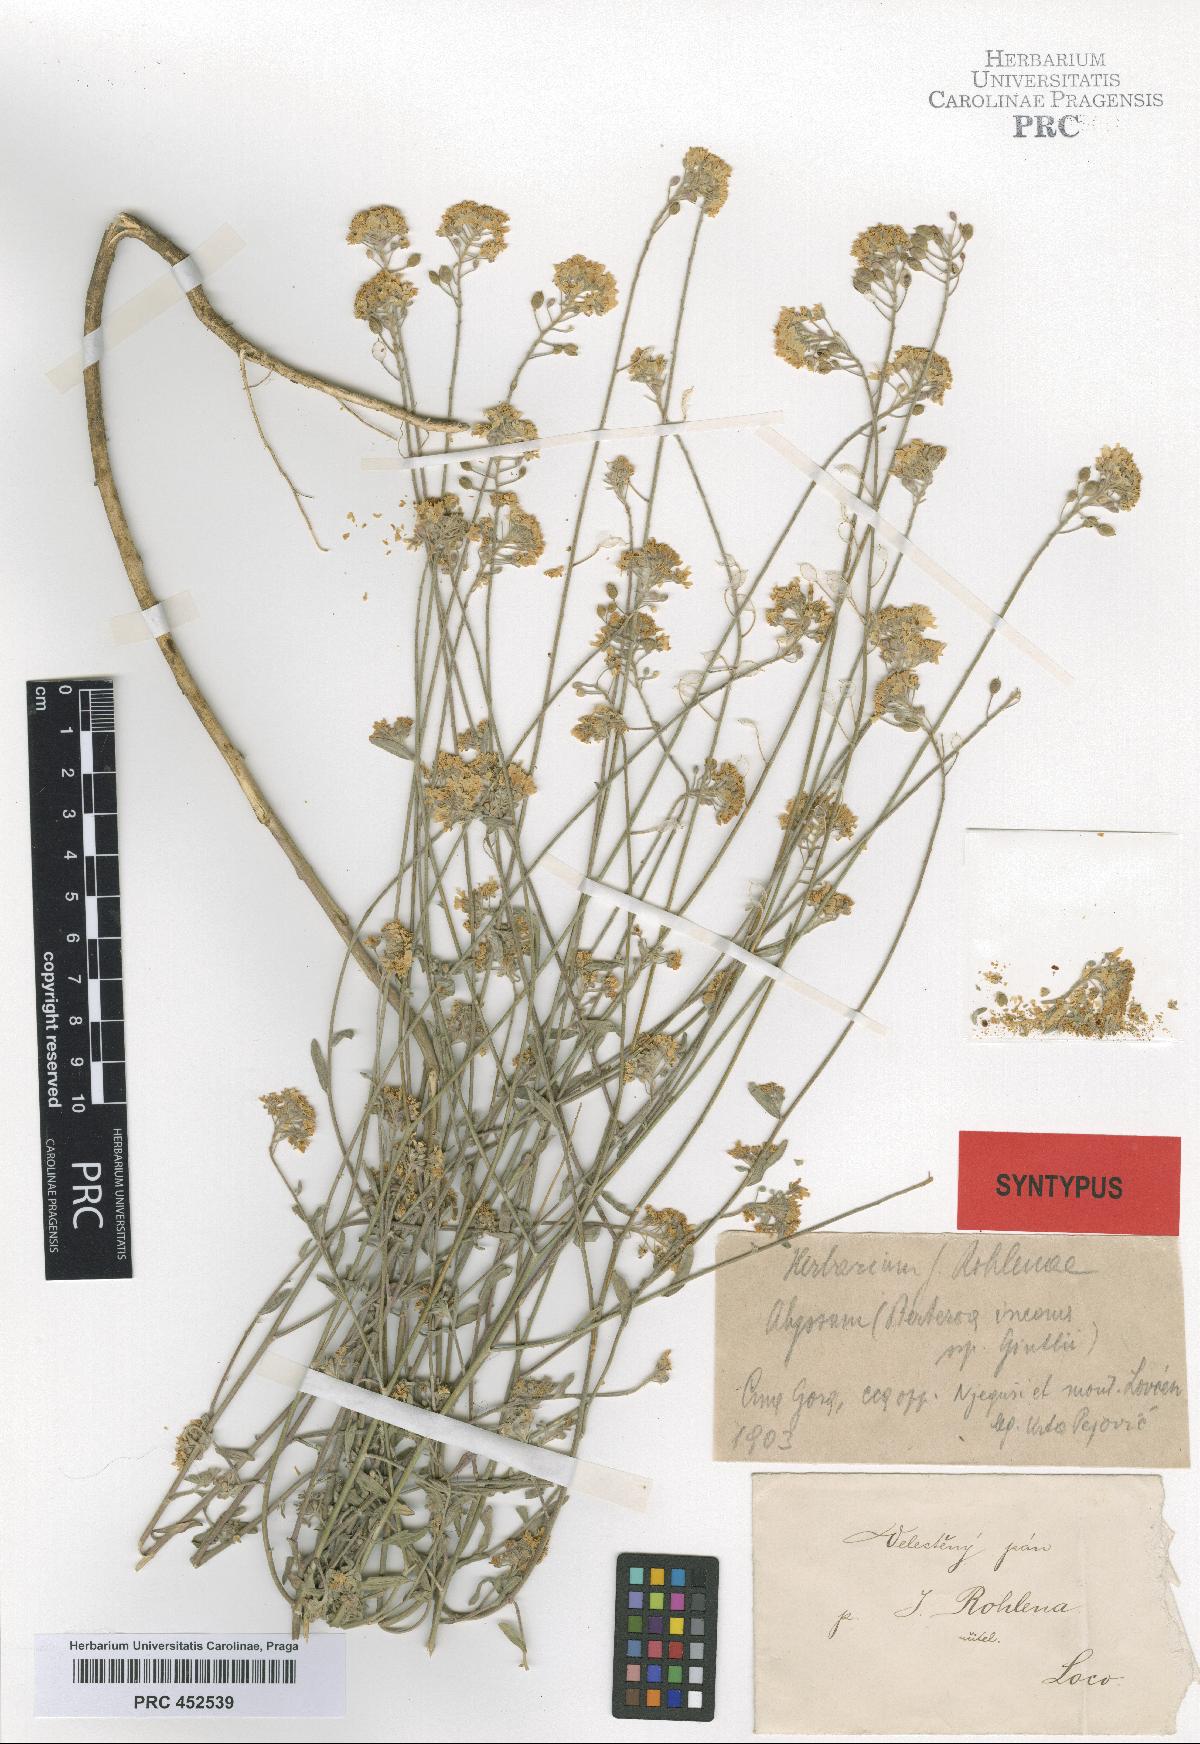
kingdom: Plantae
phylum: Tracheophyta
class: Magnoliopsida
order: Brassicales
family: Brassicaceae
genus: Berteroa
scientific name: Berteroa gintlii
